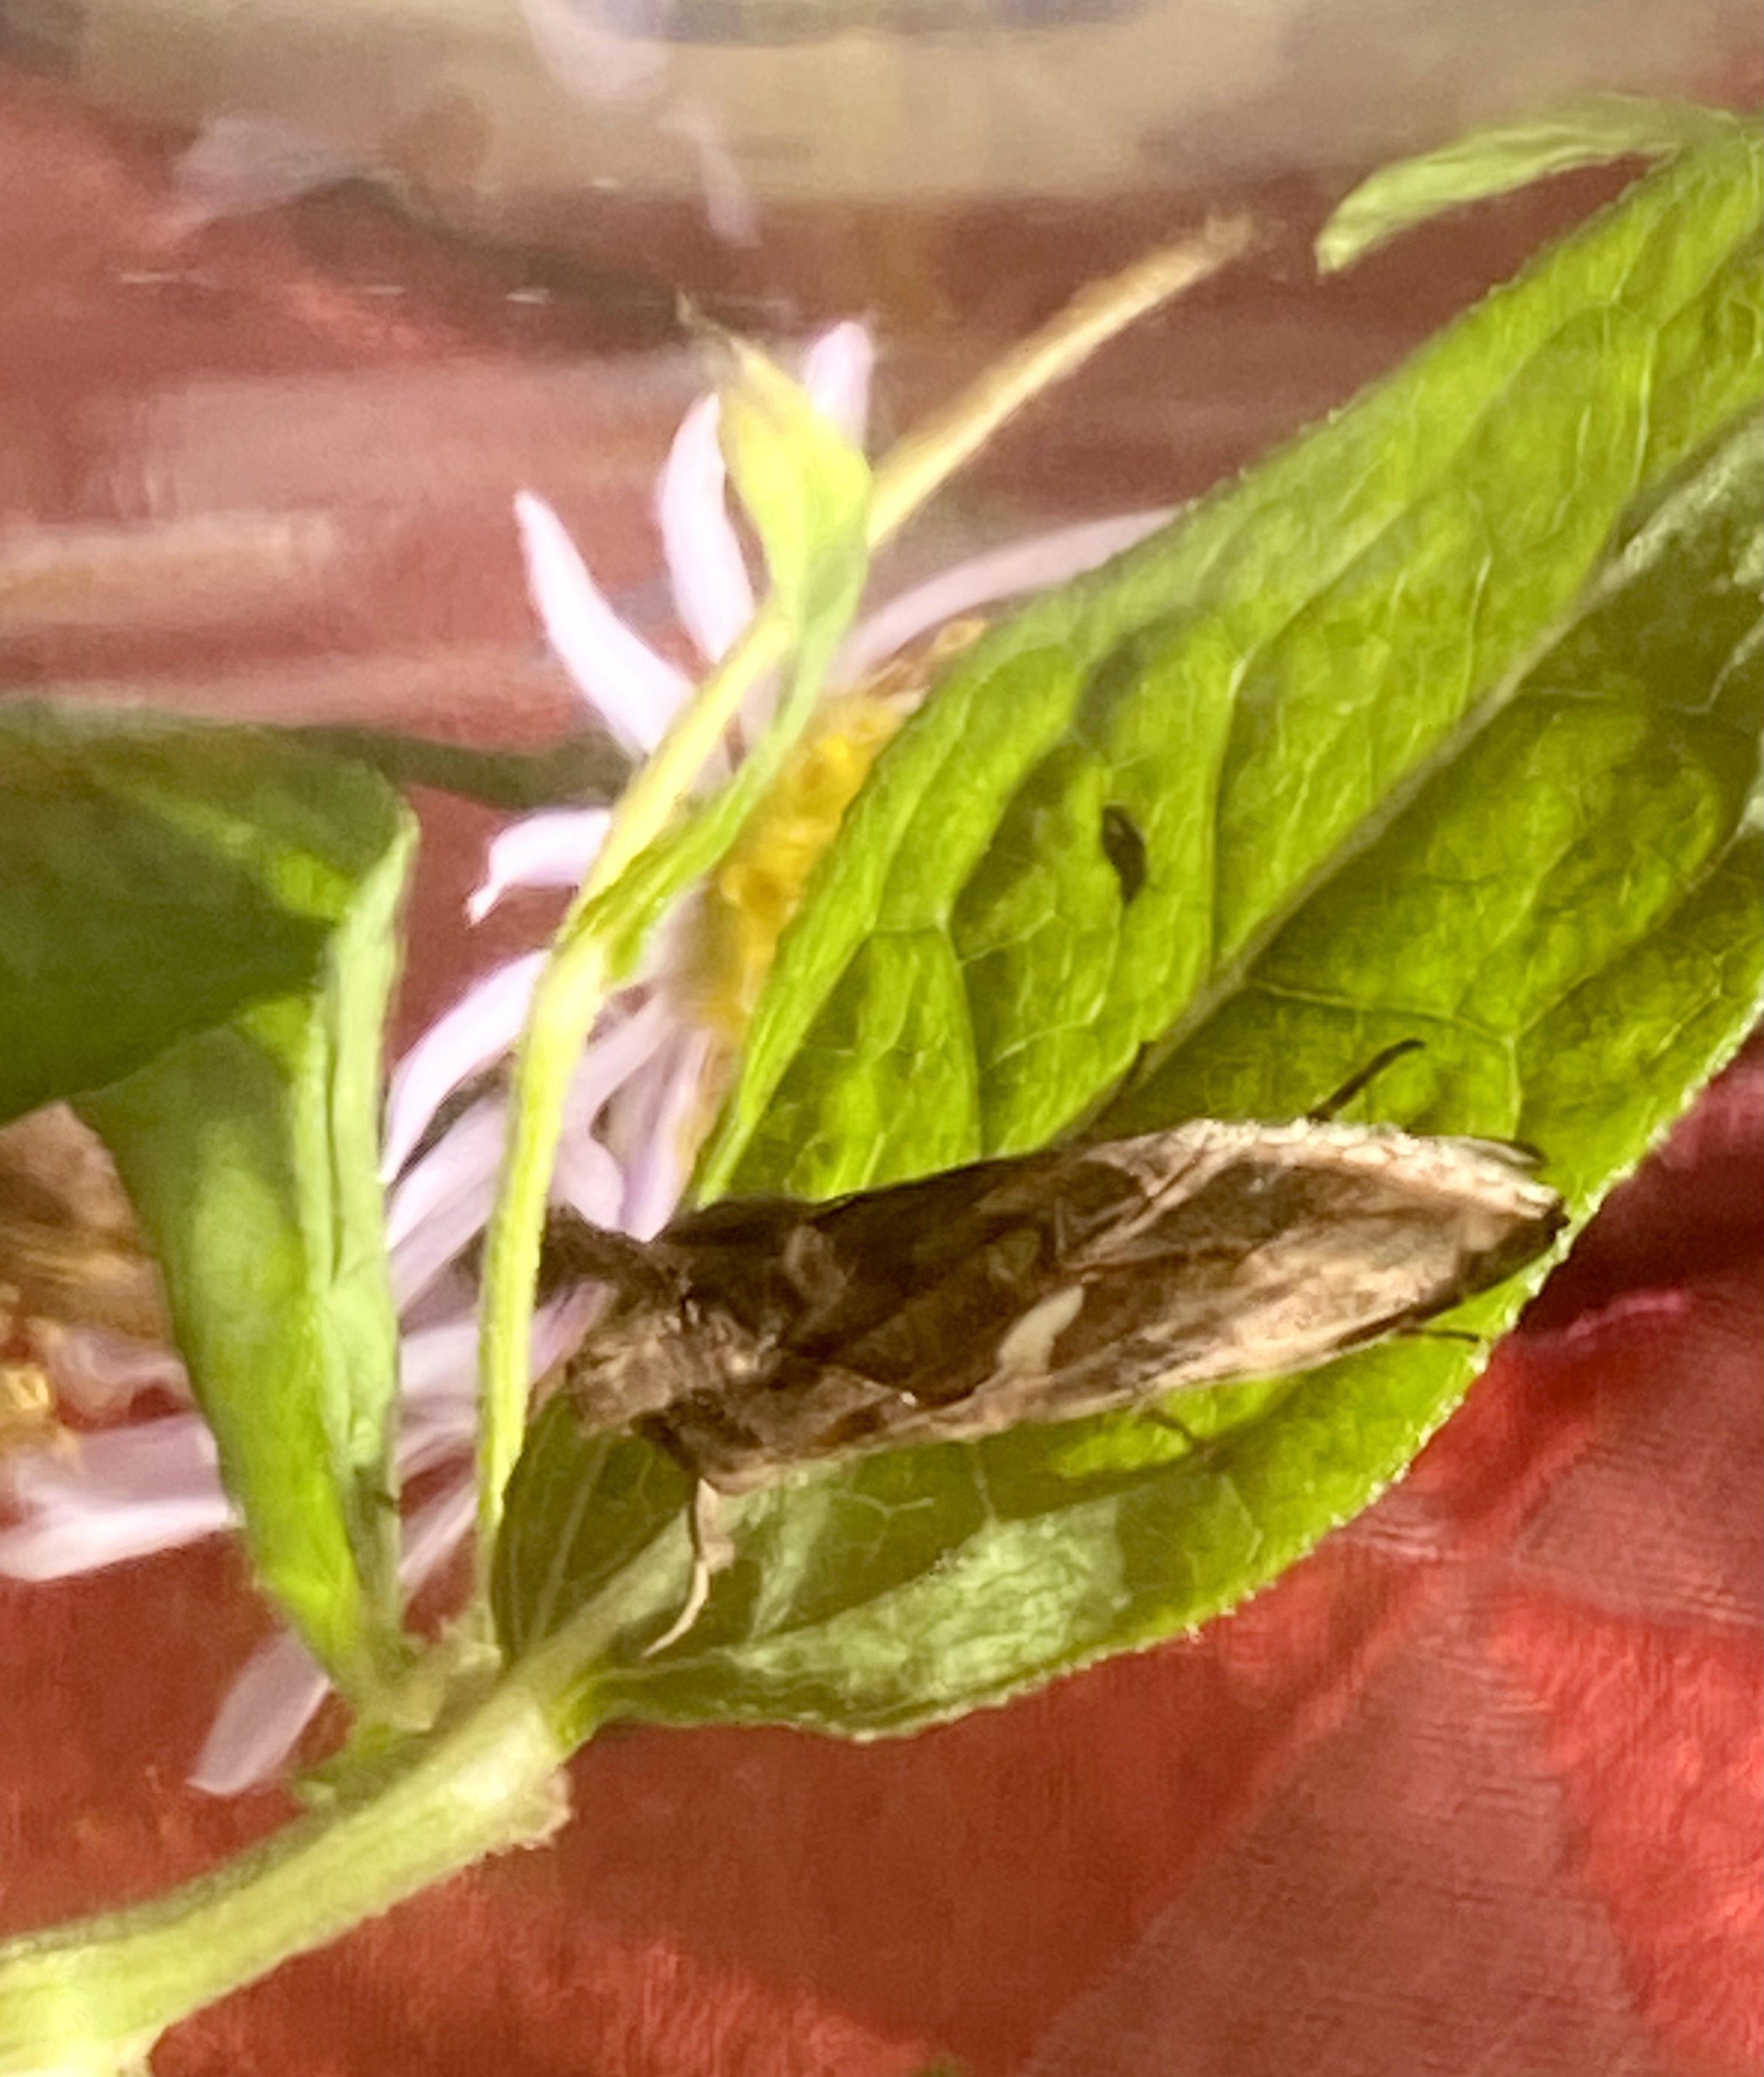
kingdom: Animalia
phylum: Arthropoda
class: Insecta
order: Lepidoptera
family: Noctuidae
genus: Autographa
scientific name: Autographa gamma
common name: Gammaugle
